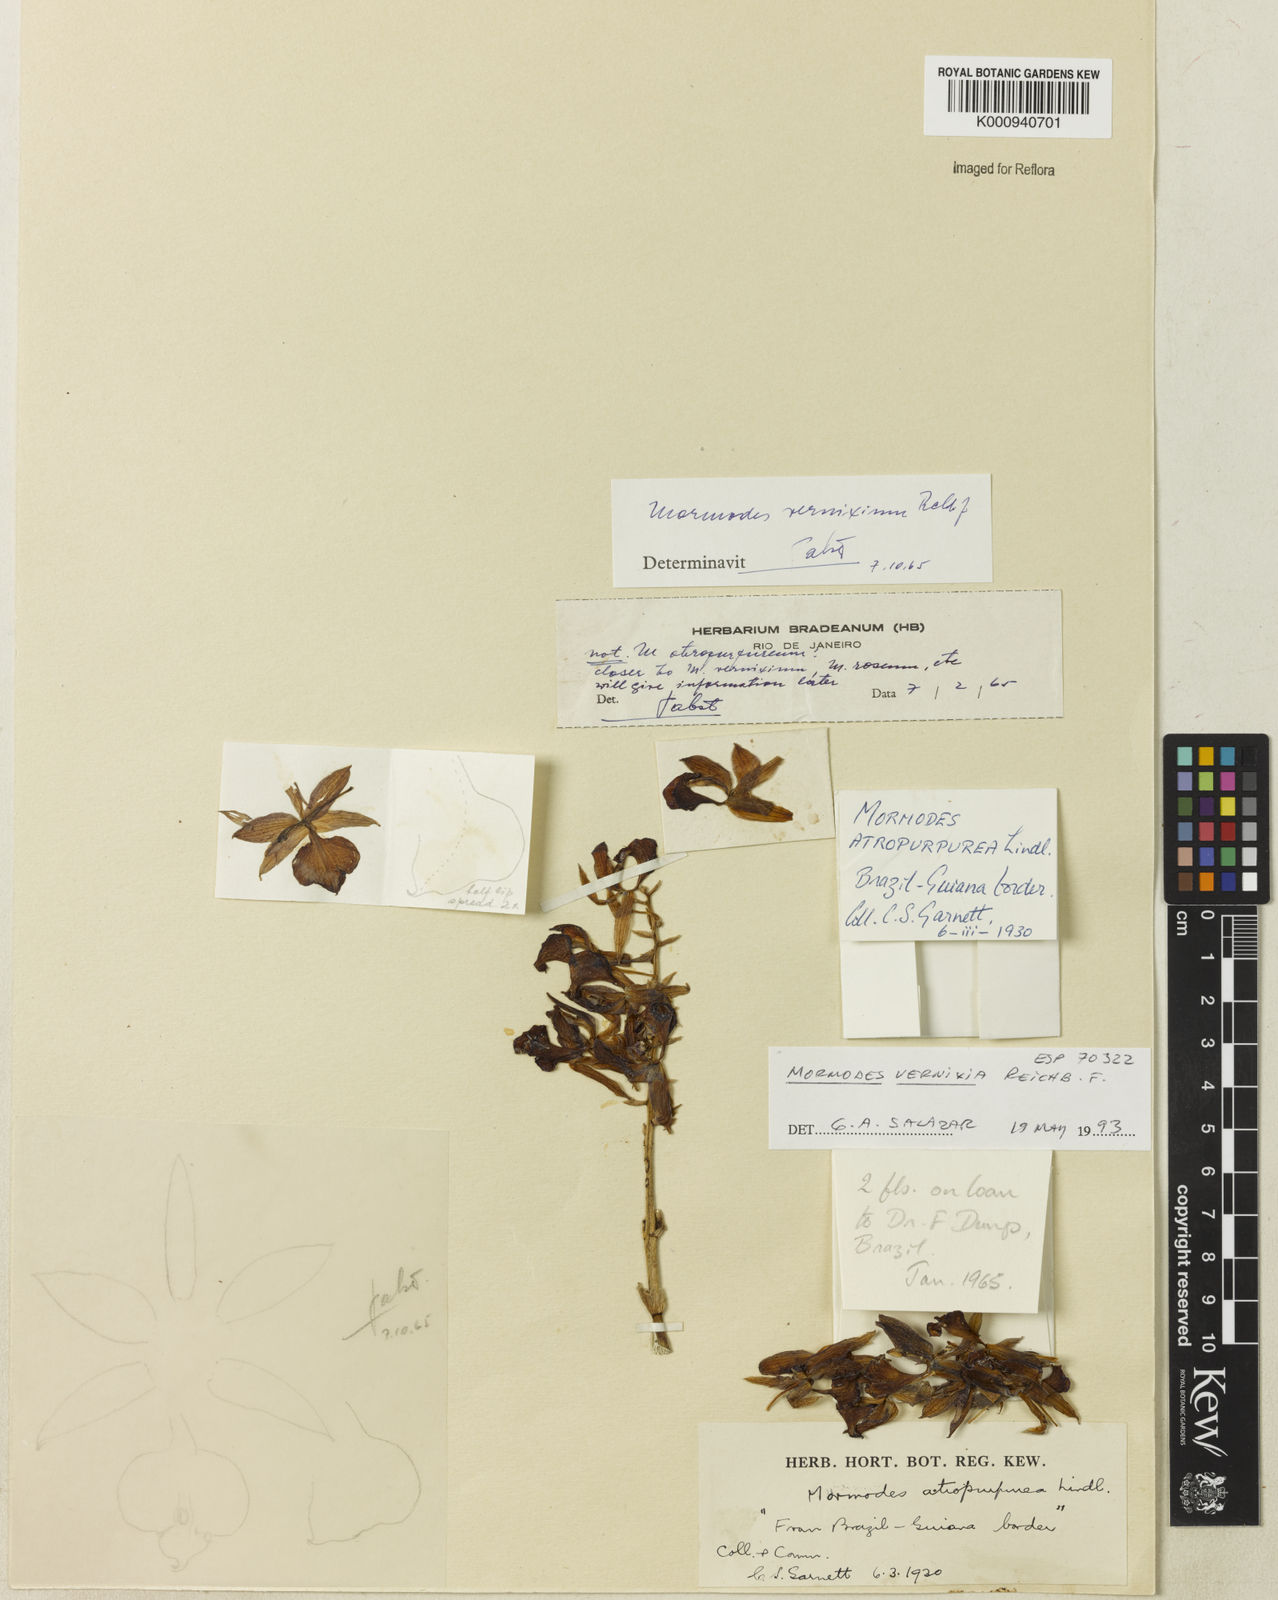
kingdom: Plantae
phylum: Tracheophyta
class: Liliopsida
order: Asparagales
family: Orchidaceae
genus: Mormodes
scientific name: Mormodes vernixium
